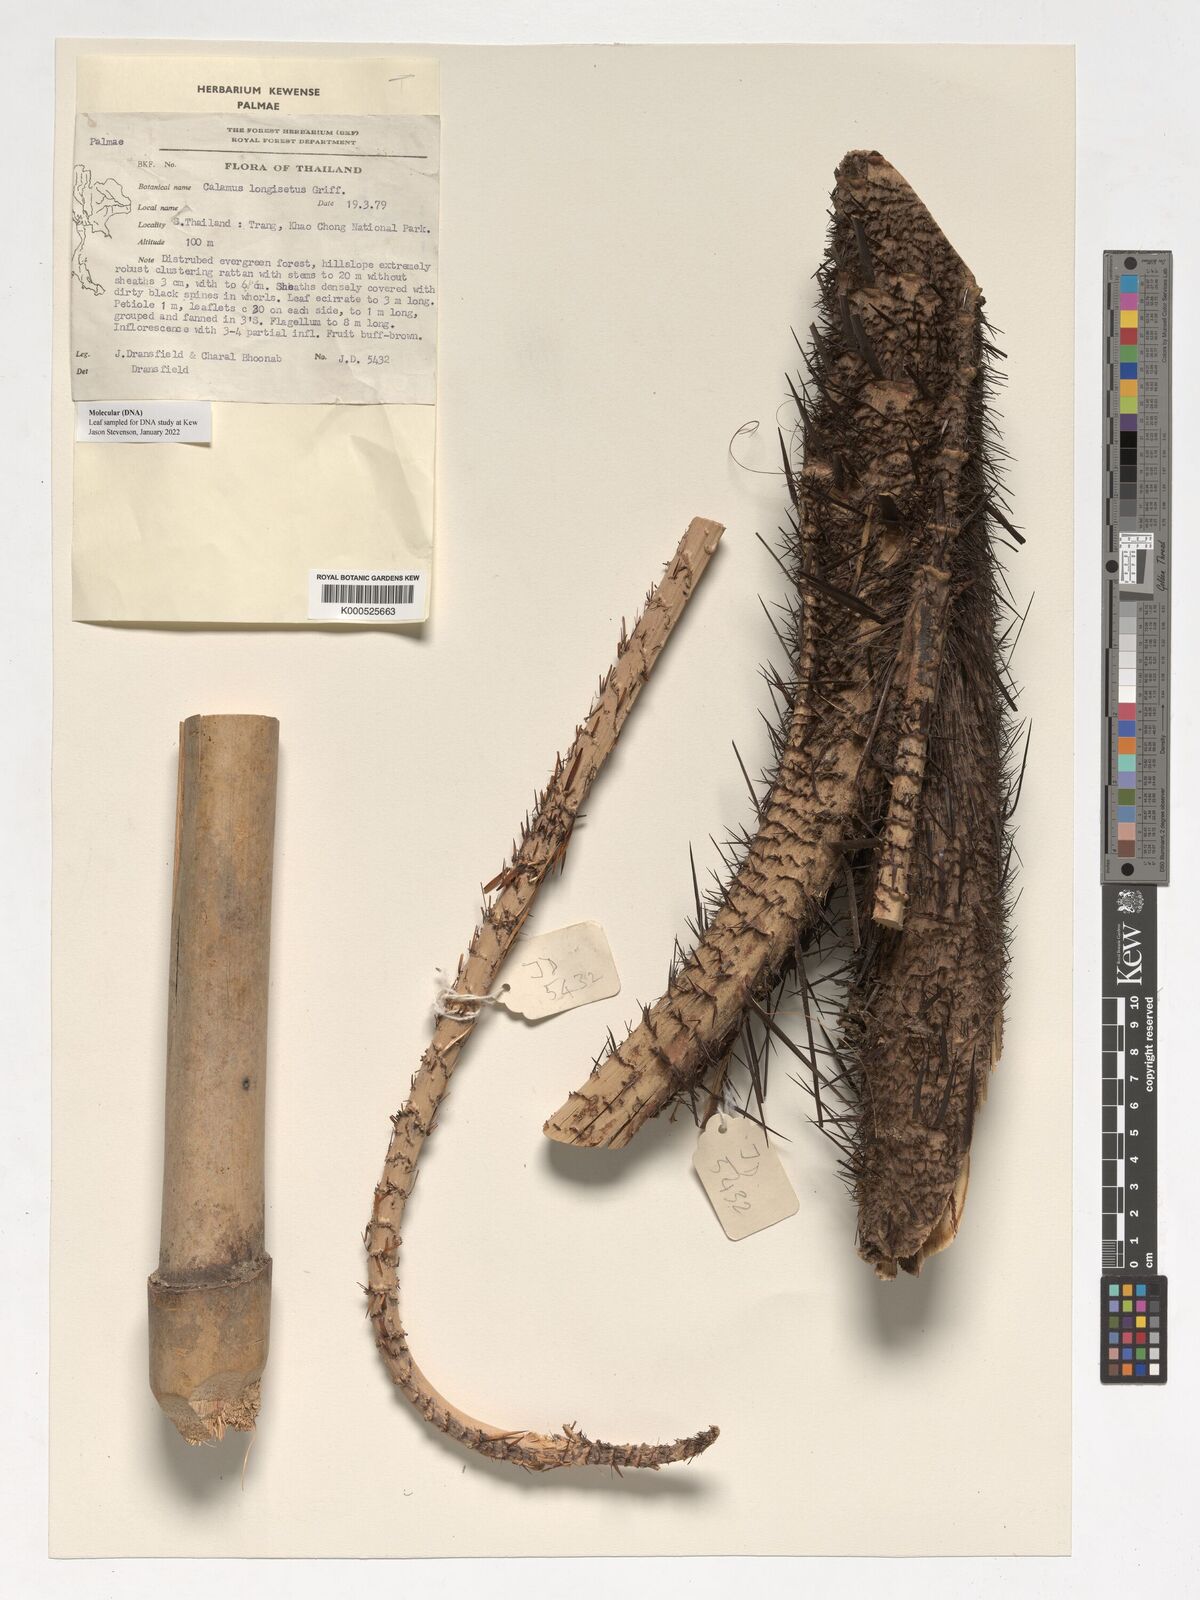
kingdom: Plantae
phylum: Tracheophyta
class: Liliopsida
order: Arecales
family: Arecaceae
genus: Calamus
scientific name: Calamus longisetus
